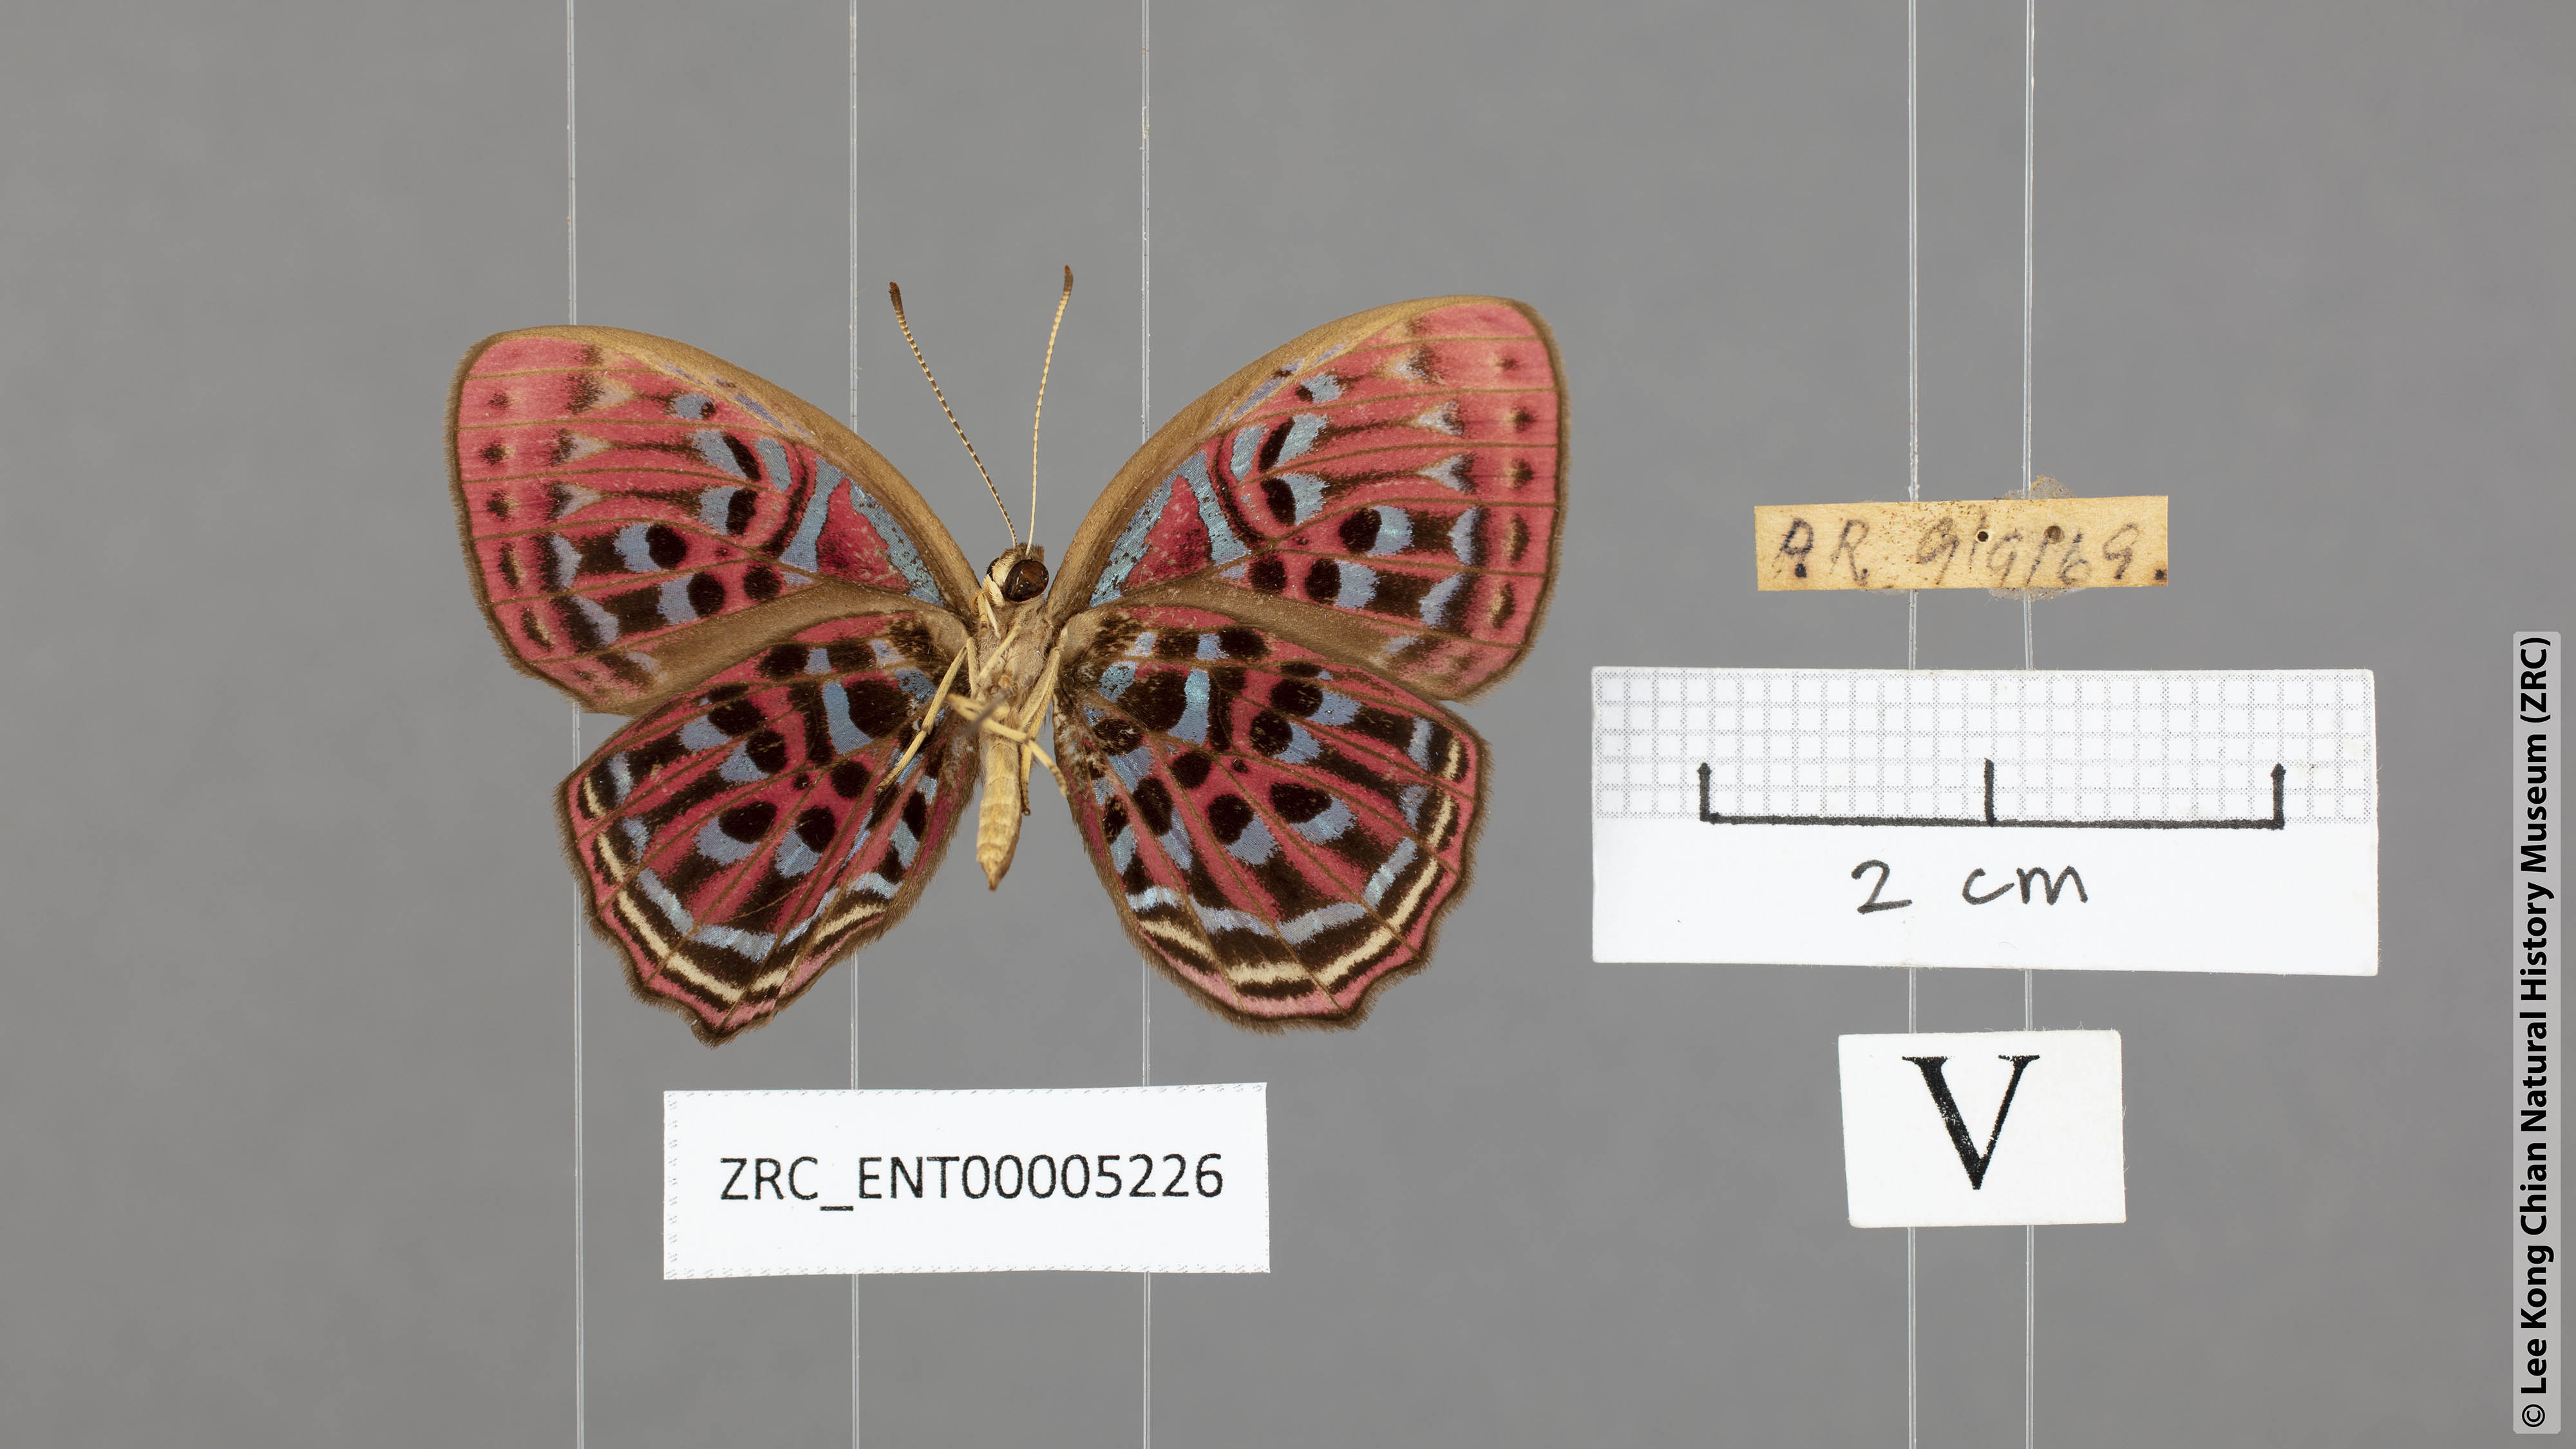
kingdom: Animalia
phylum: Arthropoda
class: Insecta
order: Lepidoptera
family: Riodinidae
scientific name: Riodinidae
